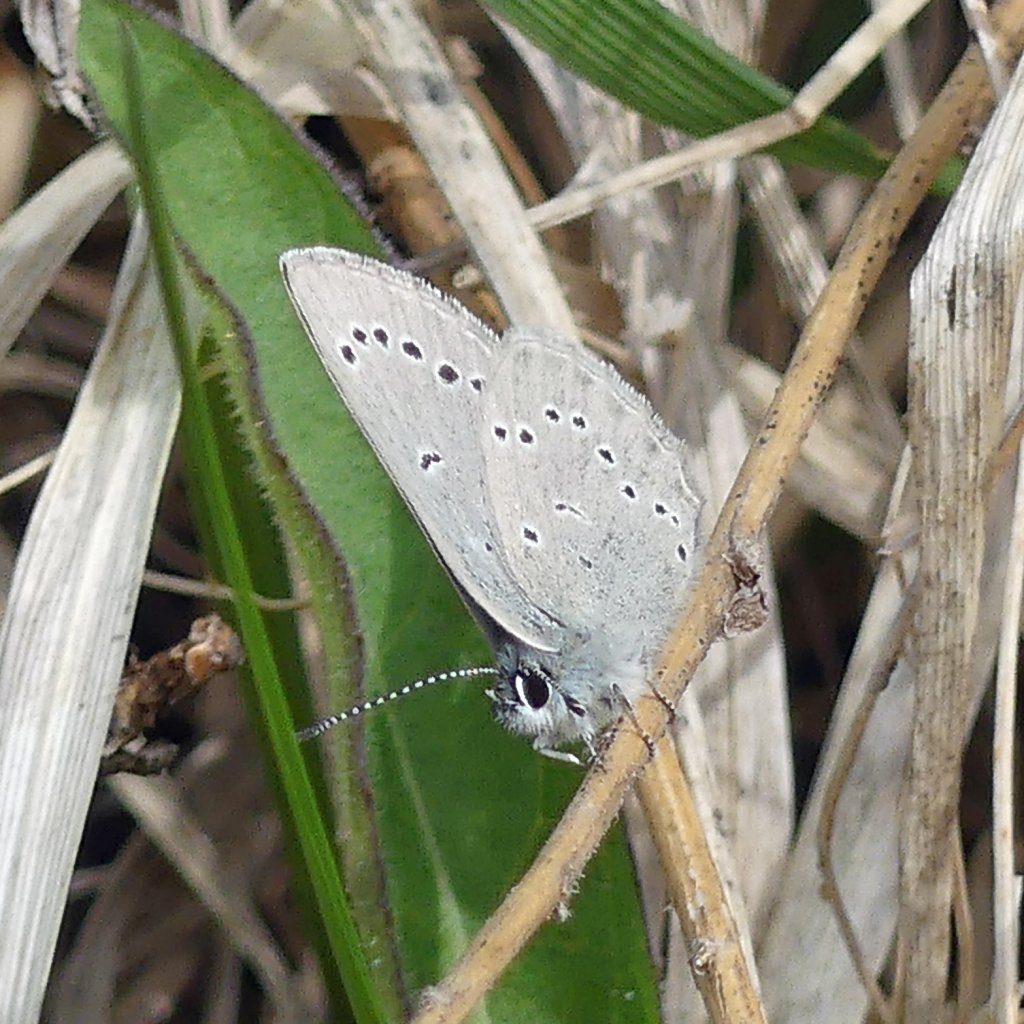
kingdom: Animalia
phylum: Arthropoda
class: Insecta
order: Lepidoptera
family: Lycaenidae
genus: Glaucopsyche
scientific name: Glaucopsyche lygdamus
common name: Silvery Blue
